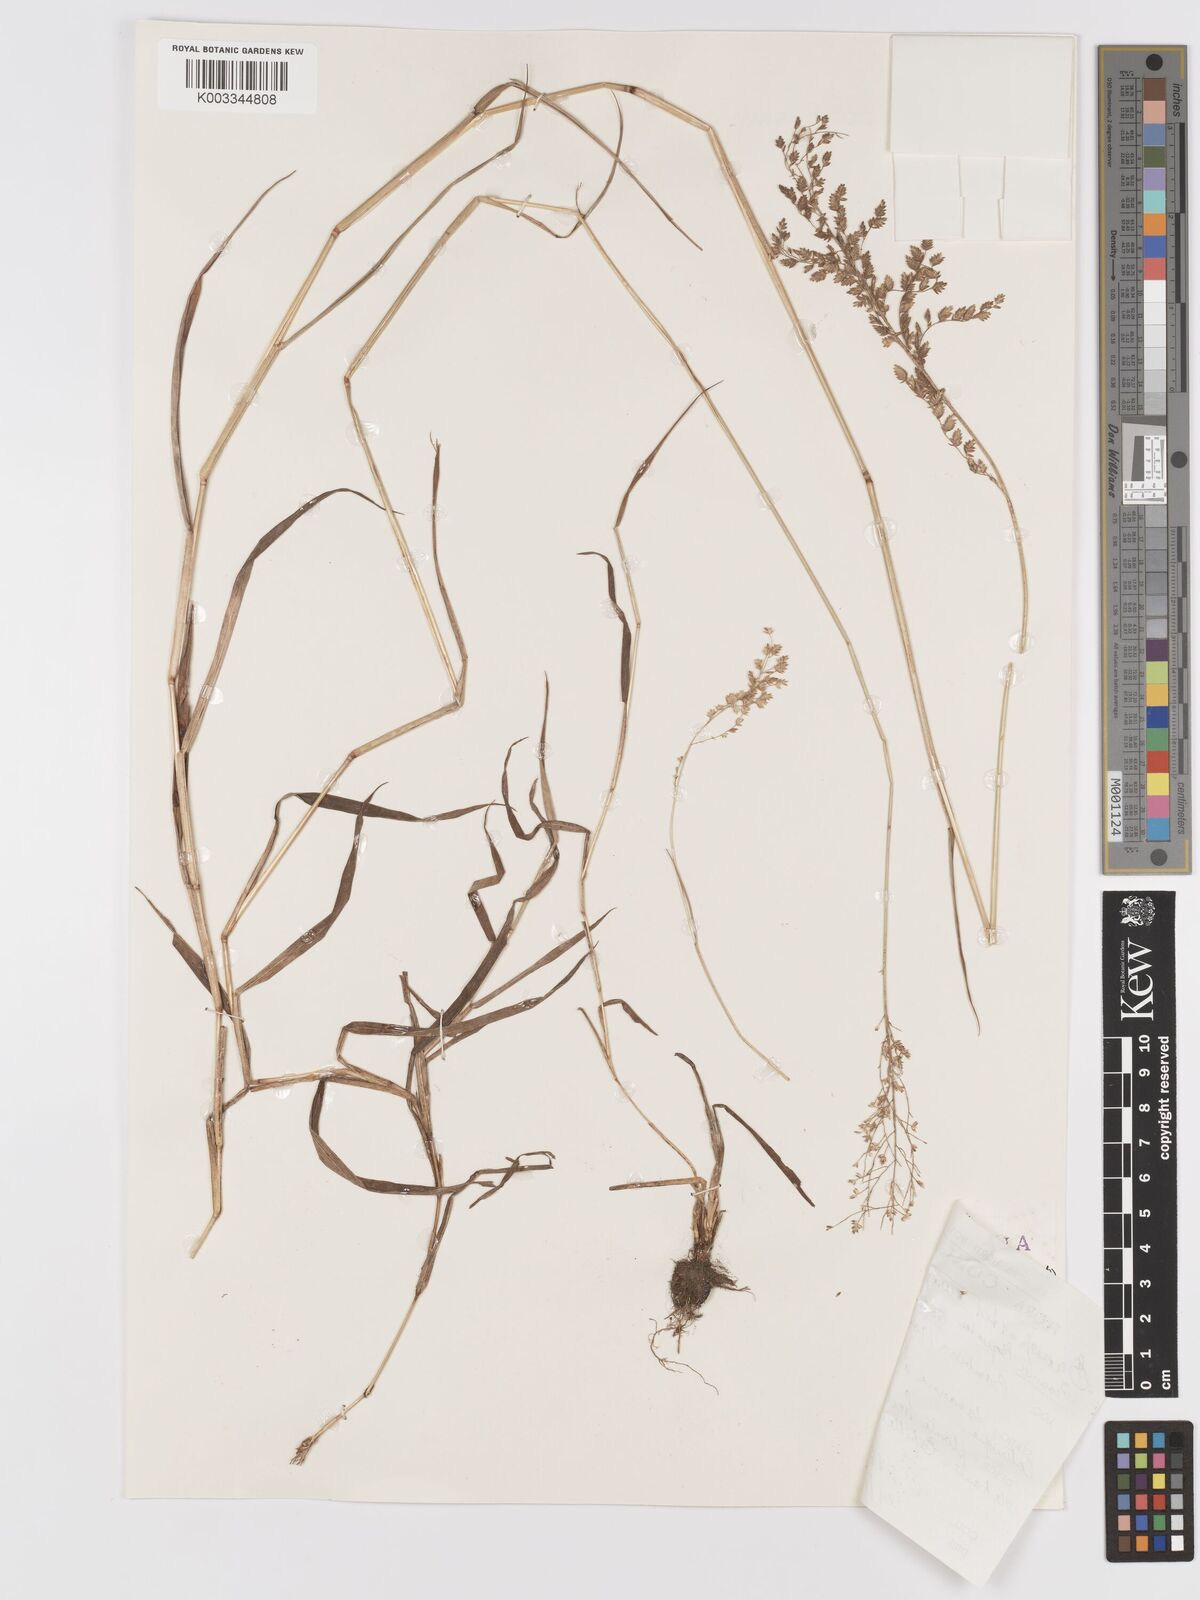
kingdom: Plantae
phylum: Tracheophyta
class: Liliopsida
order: Poales
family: Poaceae
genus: Eragrostis
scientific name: Eragrostis scotelliana
